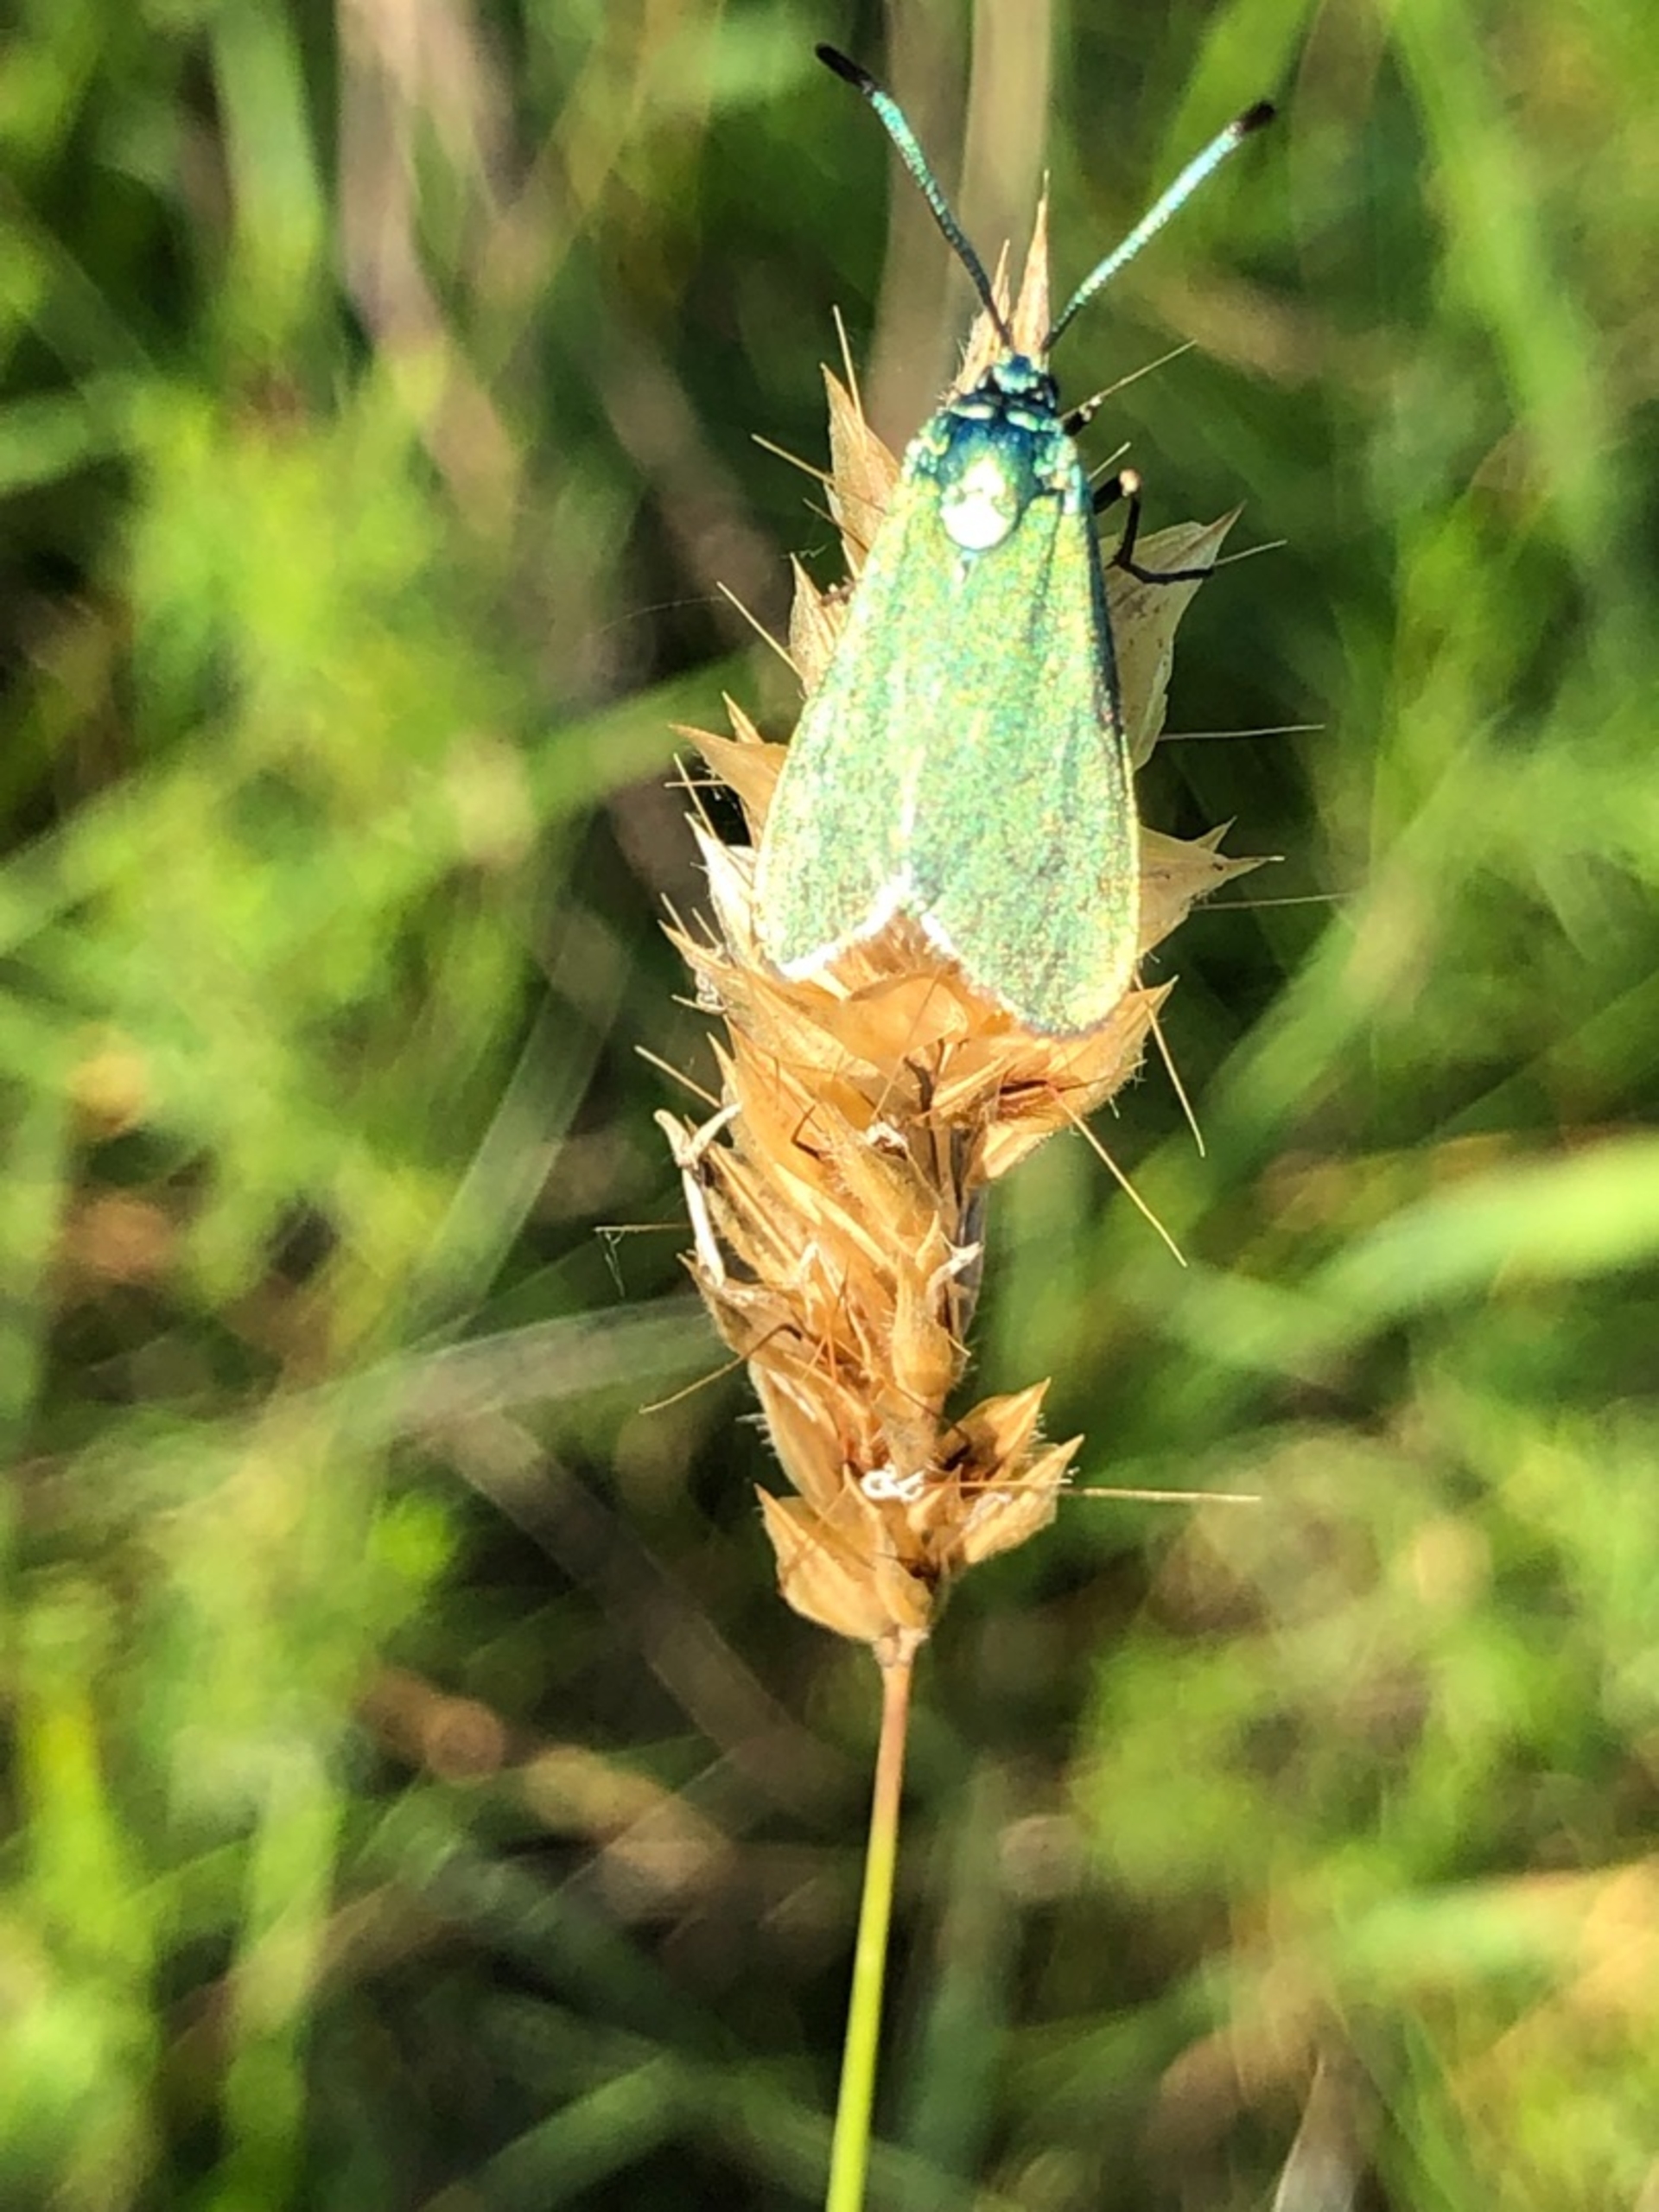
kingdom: Animalia
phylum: Arthropoda
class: Insecta
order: Lepidoptera
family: Zygaenidae
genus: Adscita
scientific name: Adscita statices
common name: Metalvinge
